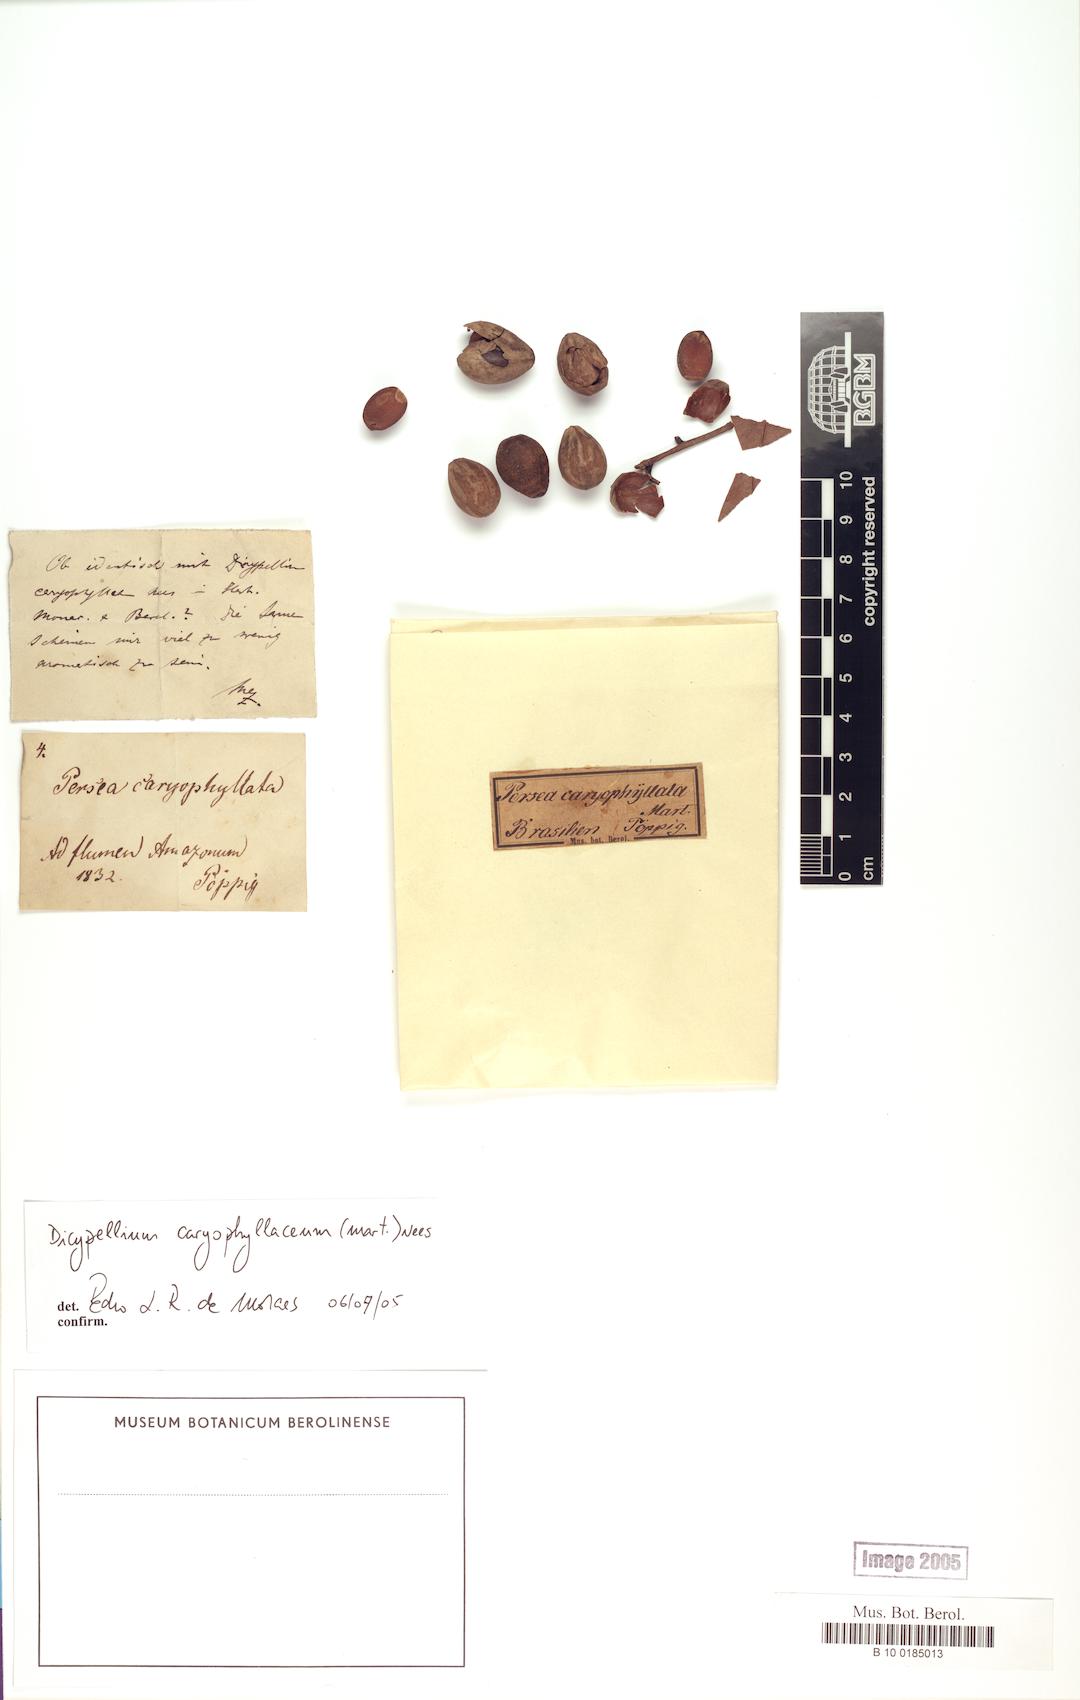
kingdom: Plantae
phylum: Tracheophyta
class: Magnoliopsida
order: Laurales
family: Lauraceae
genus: Dicypellium
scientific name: Dicypellium caryophyllaceum
